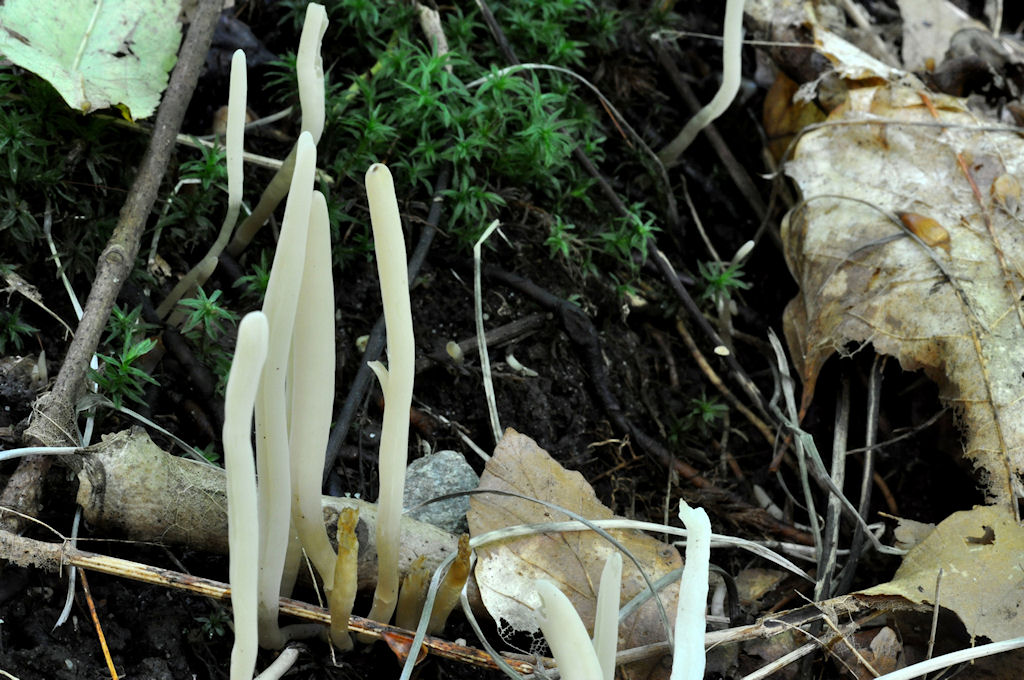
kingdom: Fungi
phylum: Basidiomycota
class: Agaricomycetes
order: Agaricales
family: Clavariaceae
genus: Clavaria
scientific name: Clavaria falcata
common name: hvid køllesvamp
